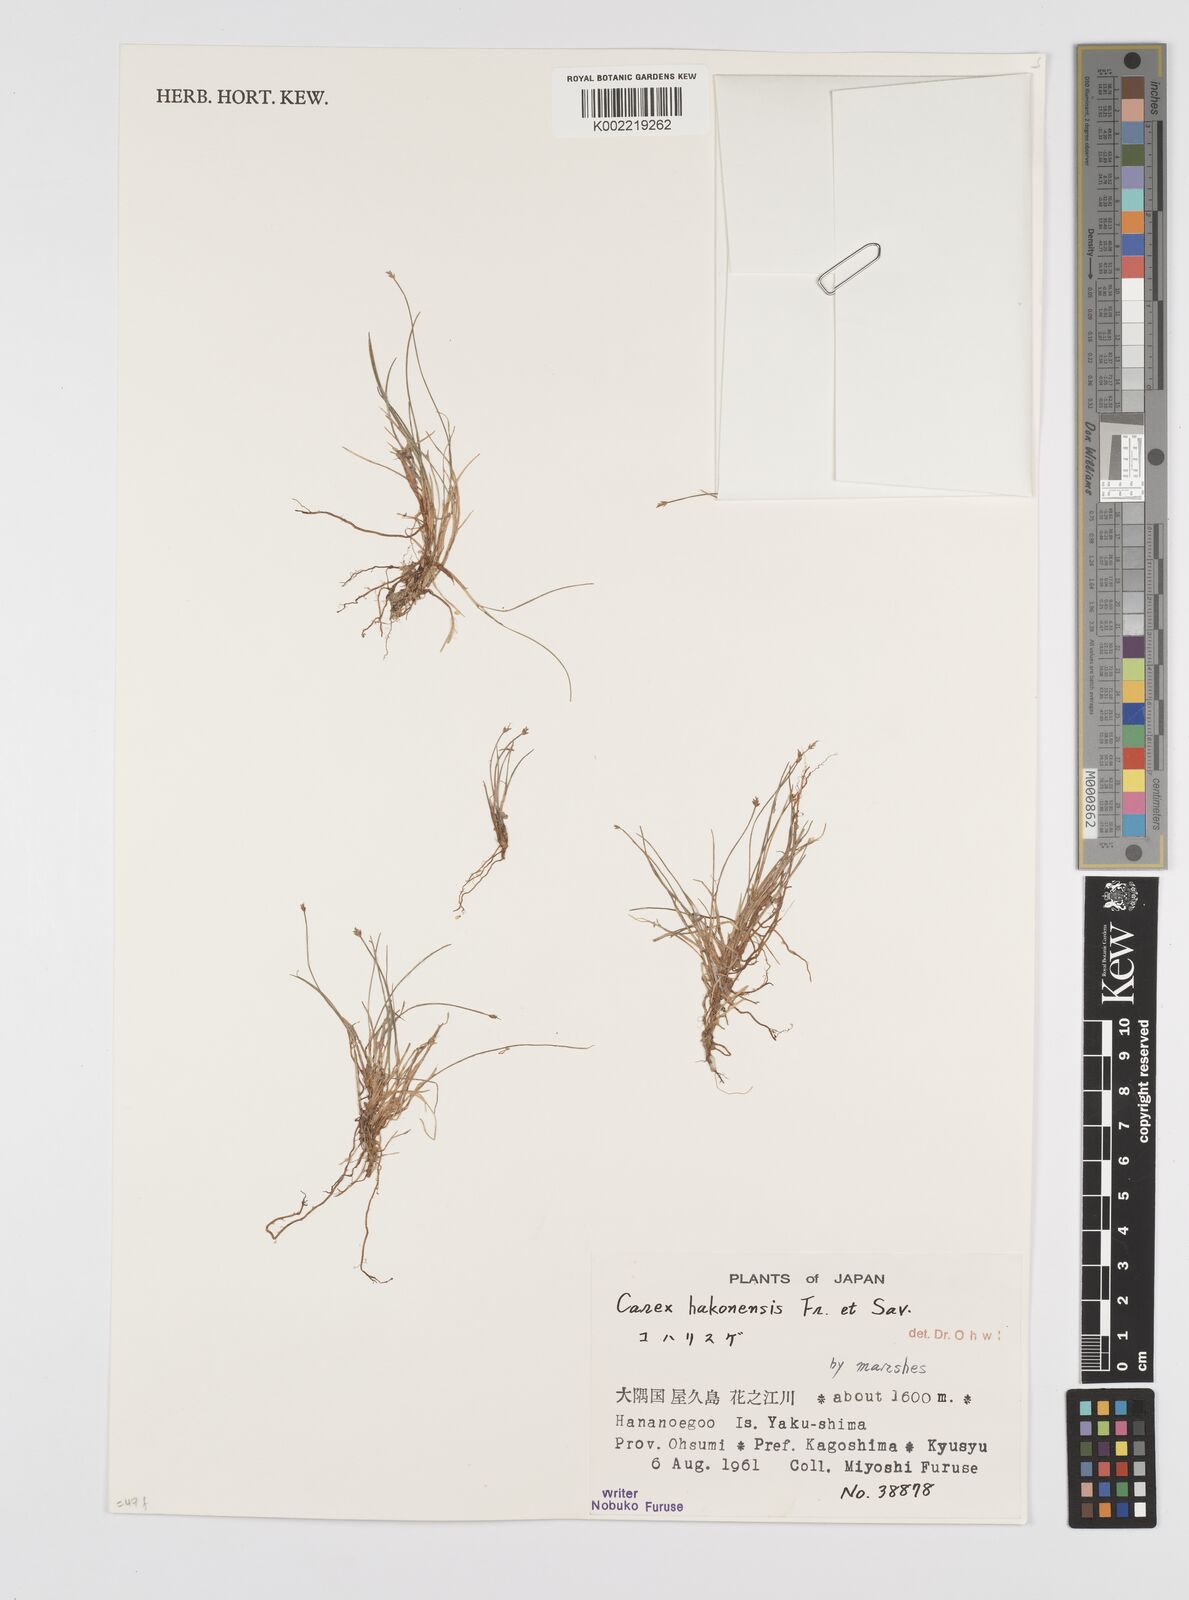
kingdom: Plantae
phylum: Tracheophyta
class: Liliopsida
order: Poales
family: Cyperaceae
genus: Carex
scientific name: Carex onoei
